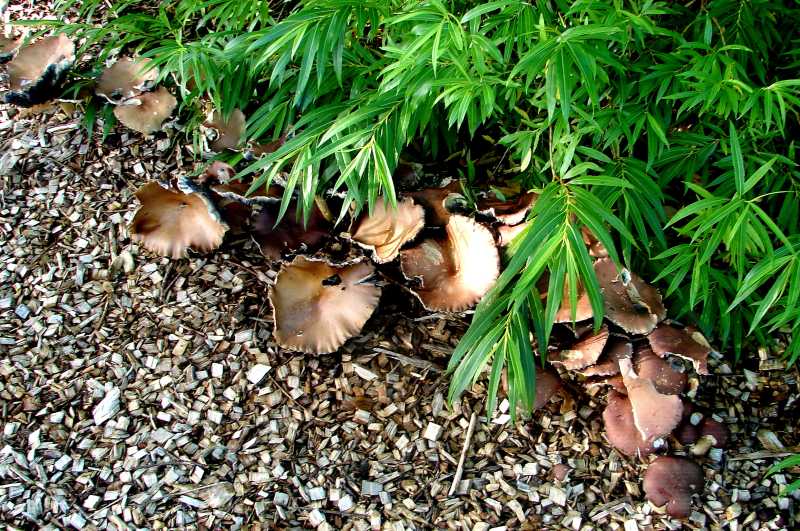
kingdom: Fungi
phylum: Basidiomycota
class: Agaricomycetes
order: Agaricales
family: Strophariaceae
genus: Stropharia
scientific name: Stropharia rugosoannulata
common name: rødbrun bredblad
